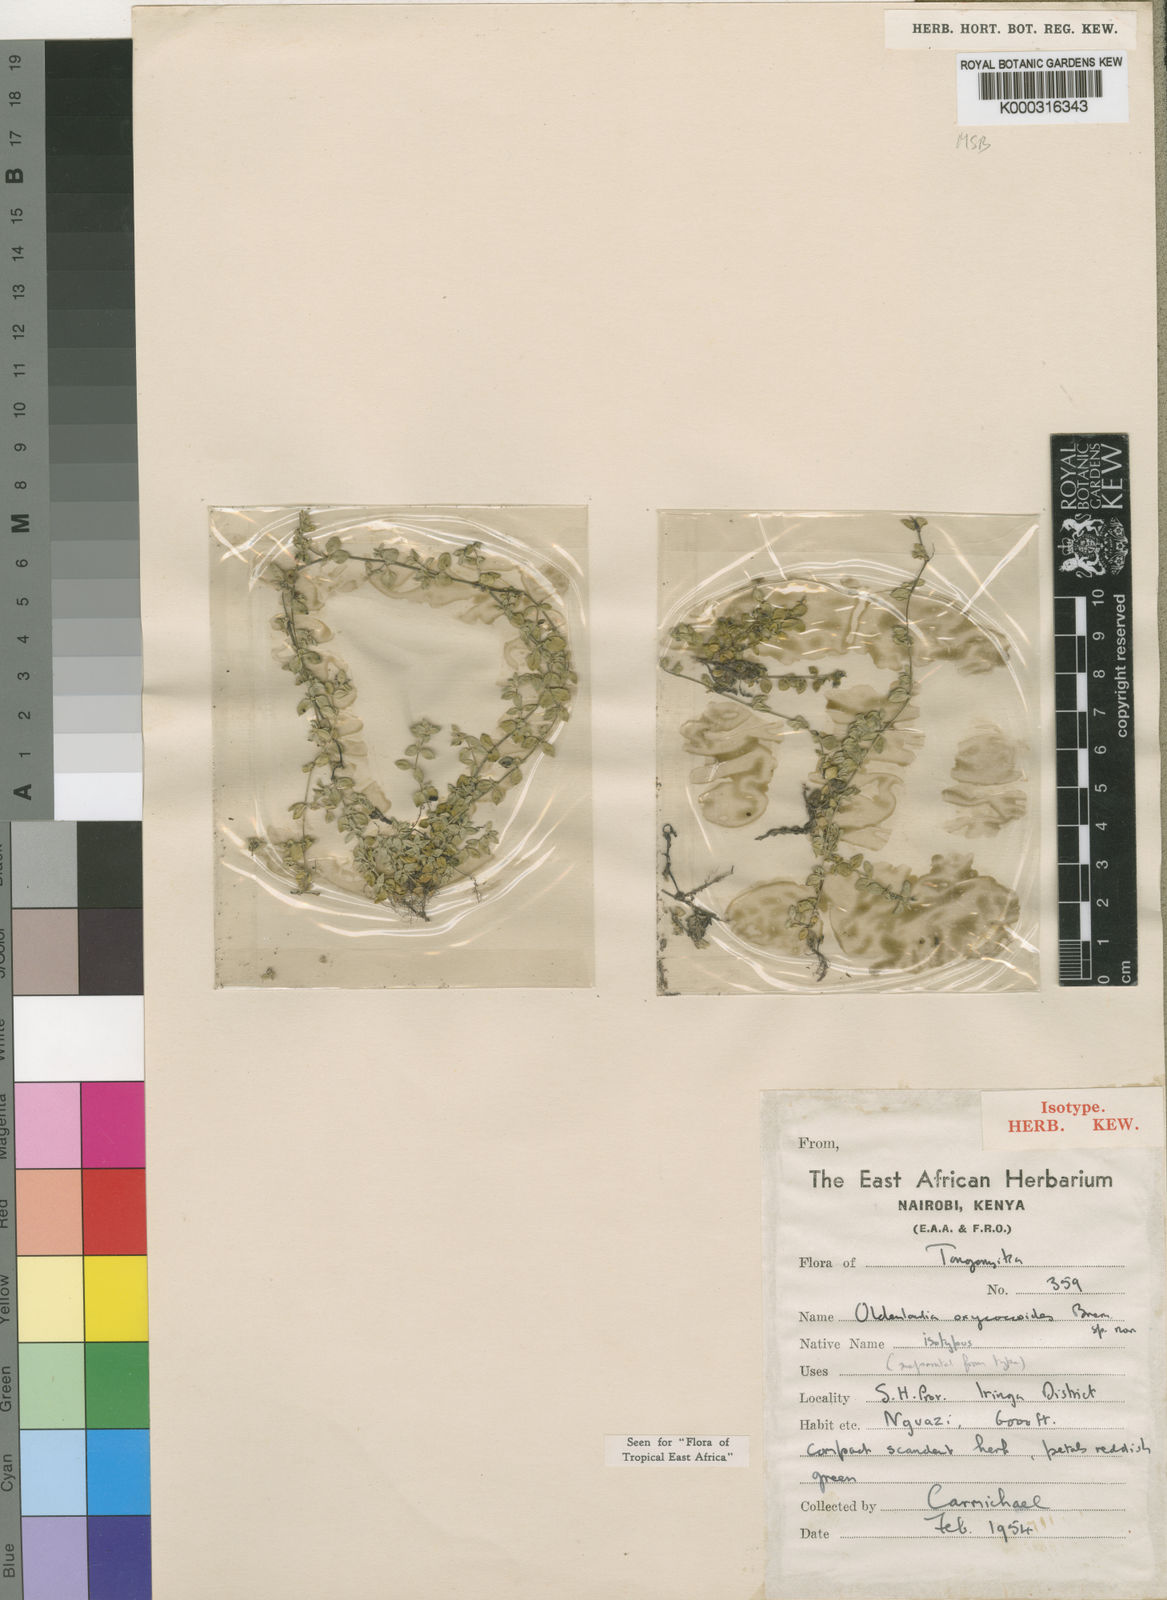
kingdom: Plantae
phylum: Tracheophyta
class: Magnoliopsida
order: Gentianales
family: Rubiaceae
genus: Oldenlandia
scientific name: Oldenlandia oxycoccoides
